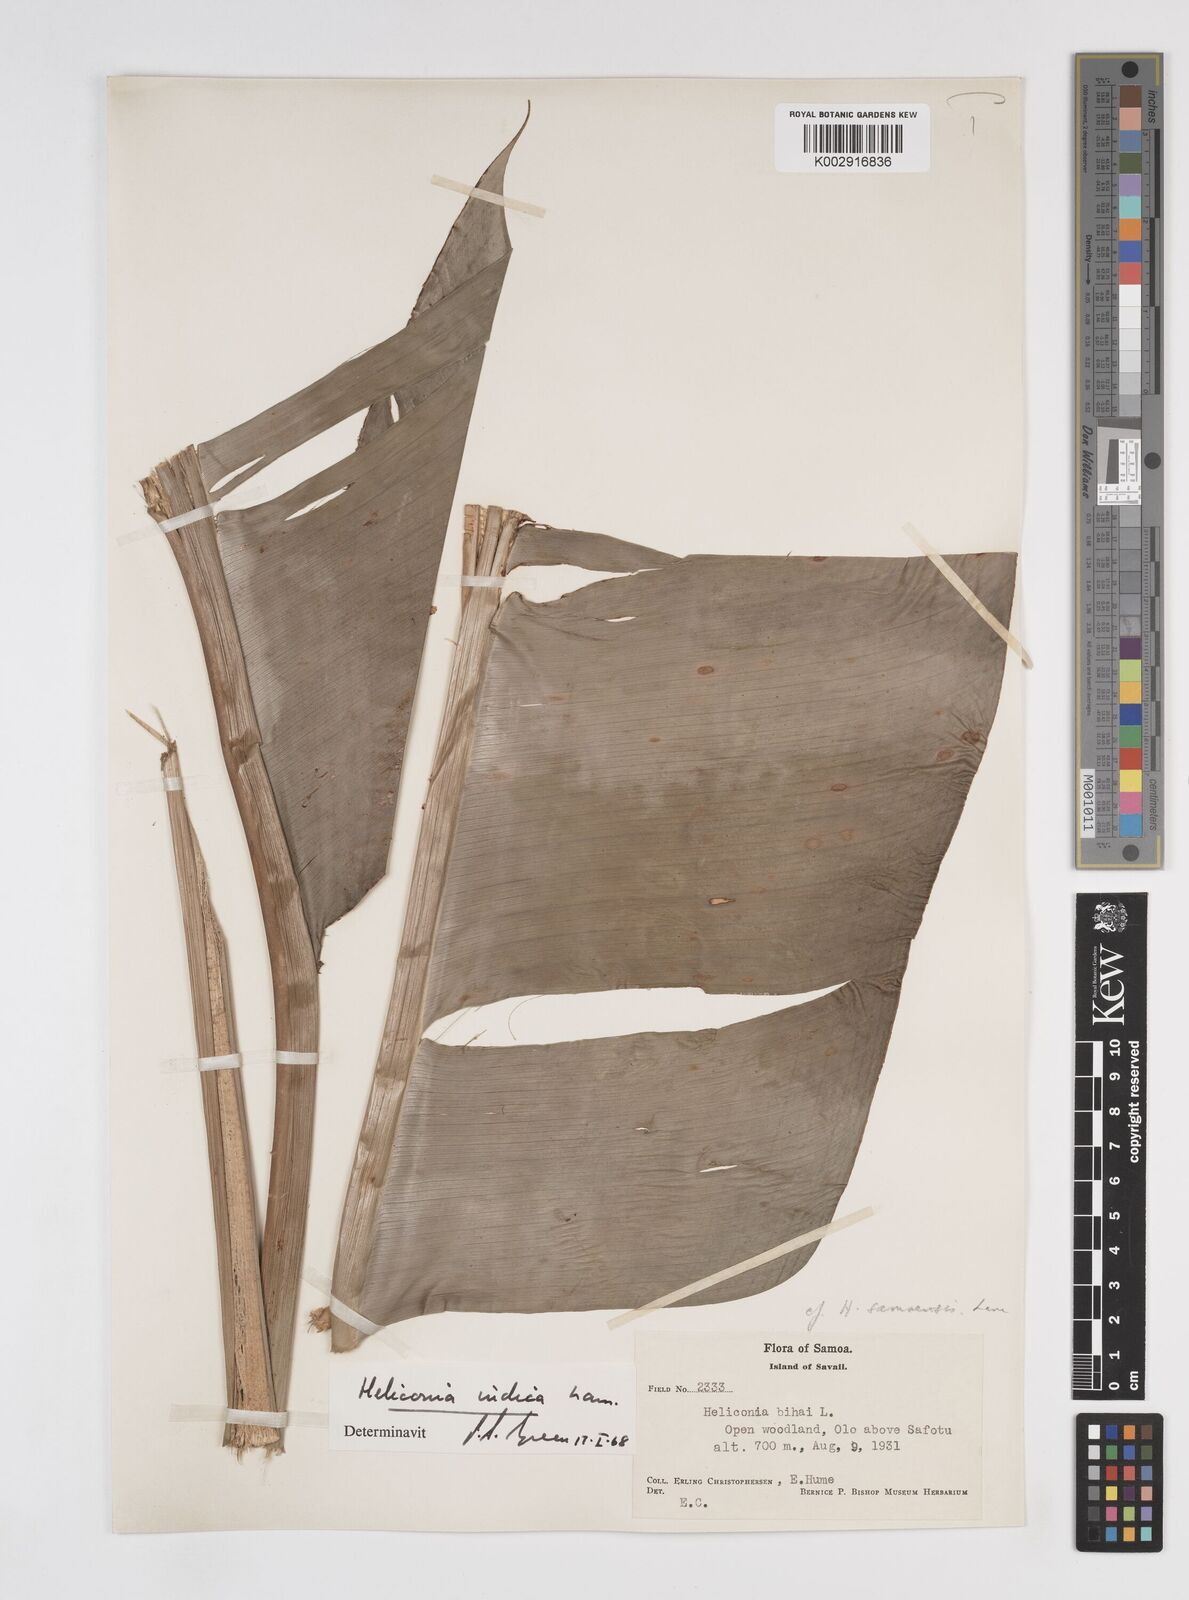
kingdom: Plantae
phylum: Tracheophyta
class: Liliopsida
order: Zingiberales
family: Heliconiaceae
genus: Heliconia
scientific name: Heliconia laufao
